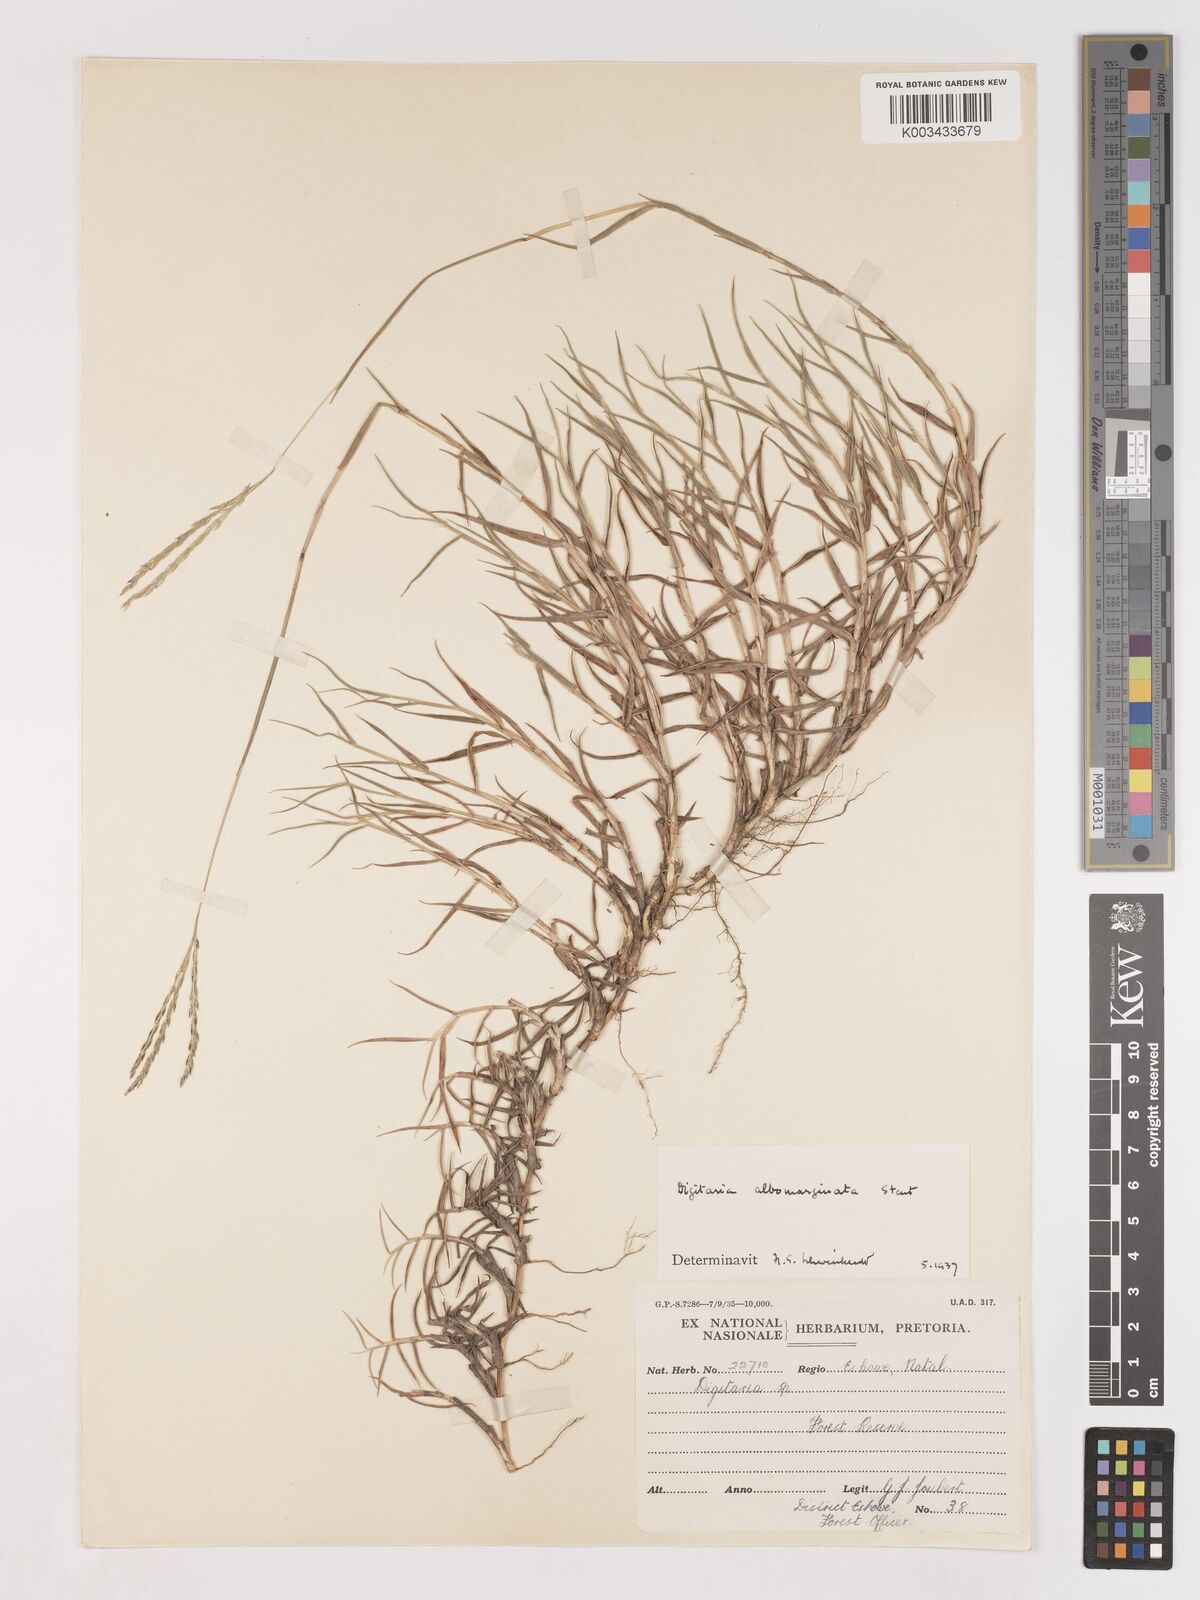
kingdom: Plantae
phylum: Tracheophyta
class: Liliopsida
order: Poales
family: Poaceae
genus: Digitaria
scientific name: Digitaria diversinervis
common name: Richmond finger grass
